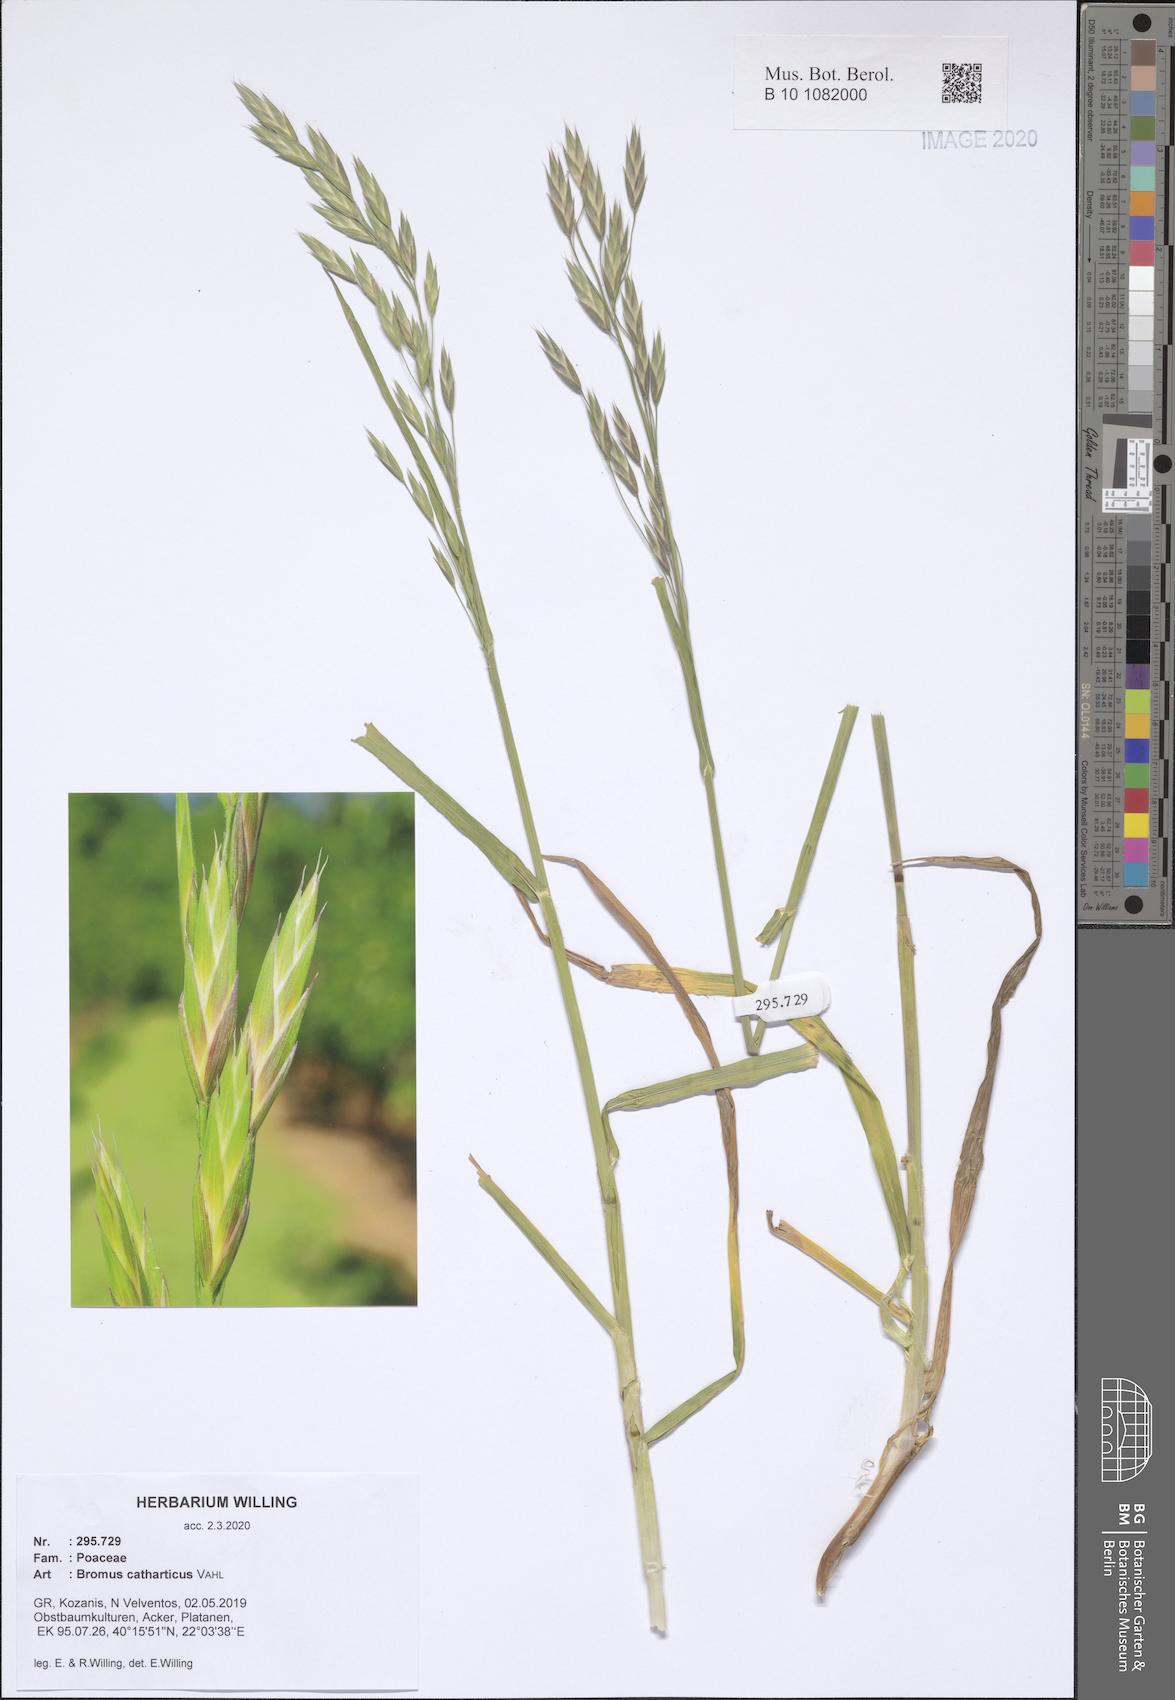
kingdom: Plantae
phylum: Tracheophyta
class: Liliopsida
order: Poales
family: Poaceae
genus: Bromus
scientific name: Bromus catharticus
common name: Rescuegrass
